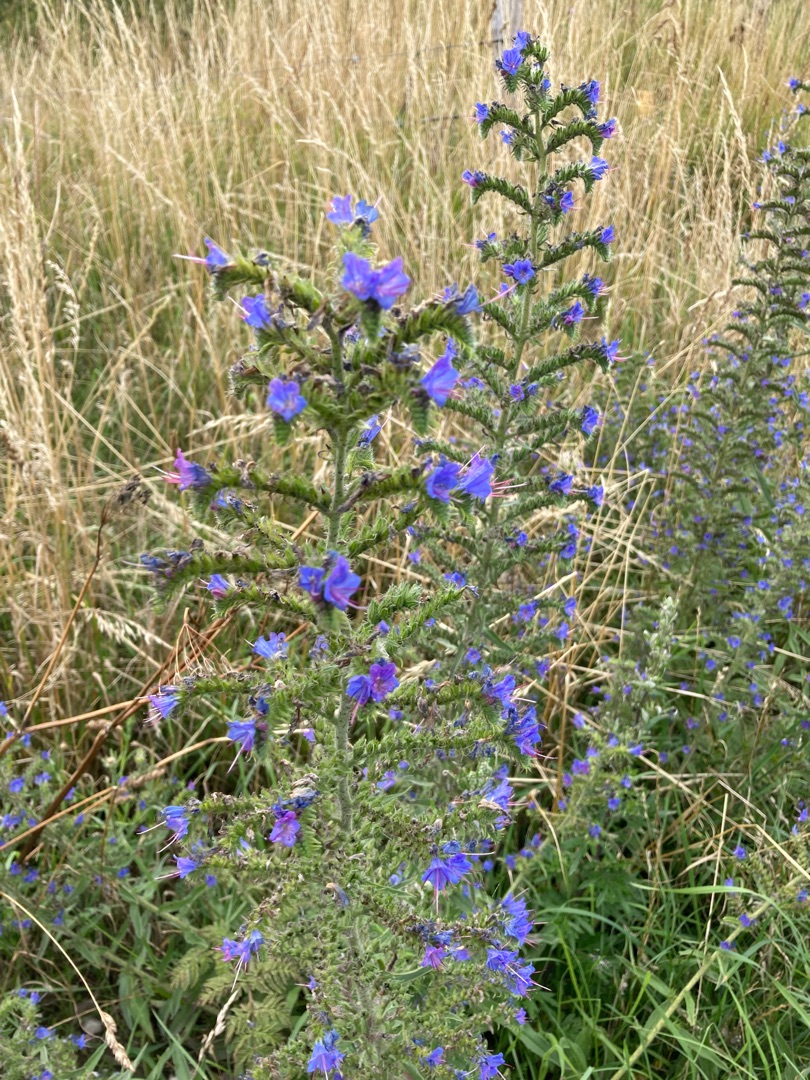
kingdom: Plantae
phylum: Tracheophyta
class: Magnoliopsida
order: Boraginales
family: Boraginaceae
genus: Echium
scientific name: Echium vulgare
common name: Slangehoved
